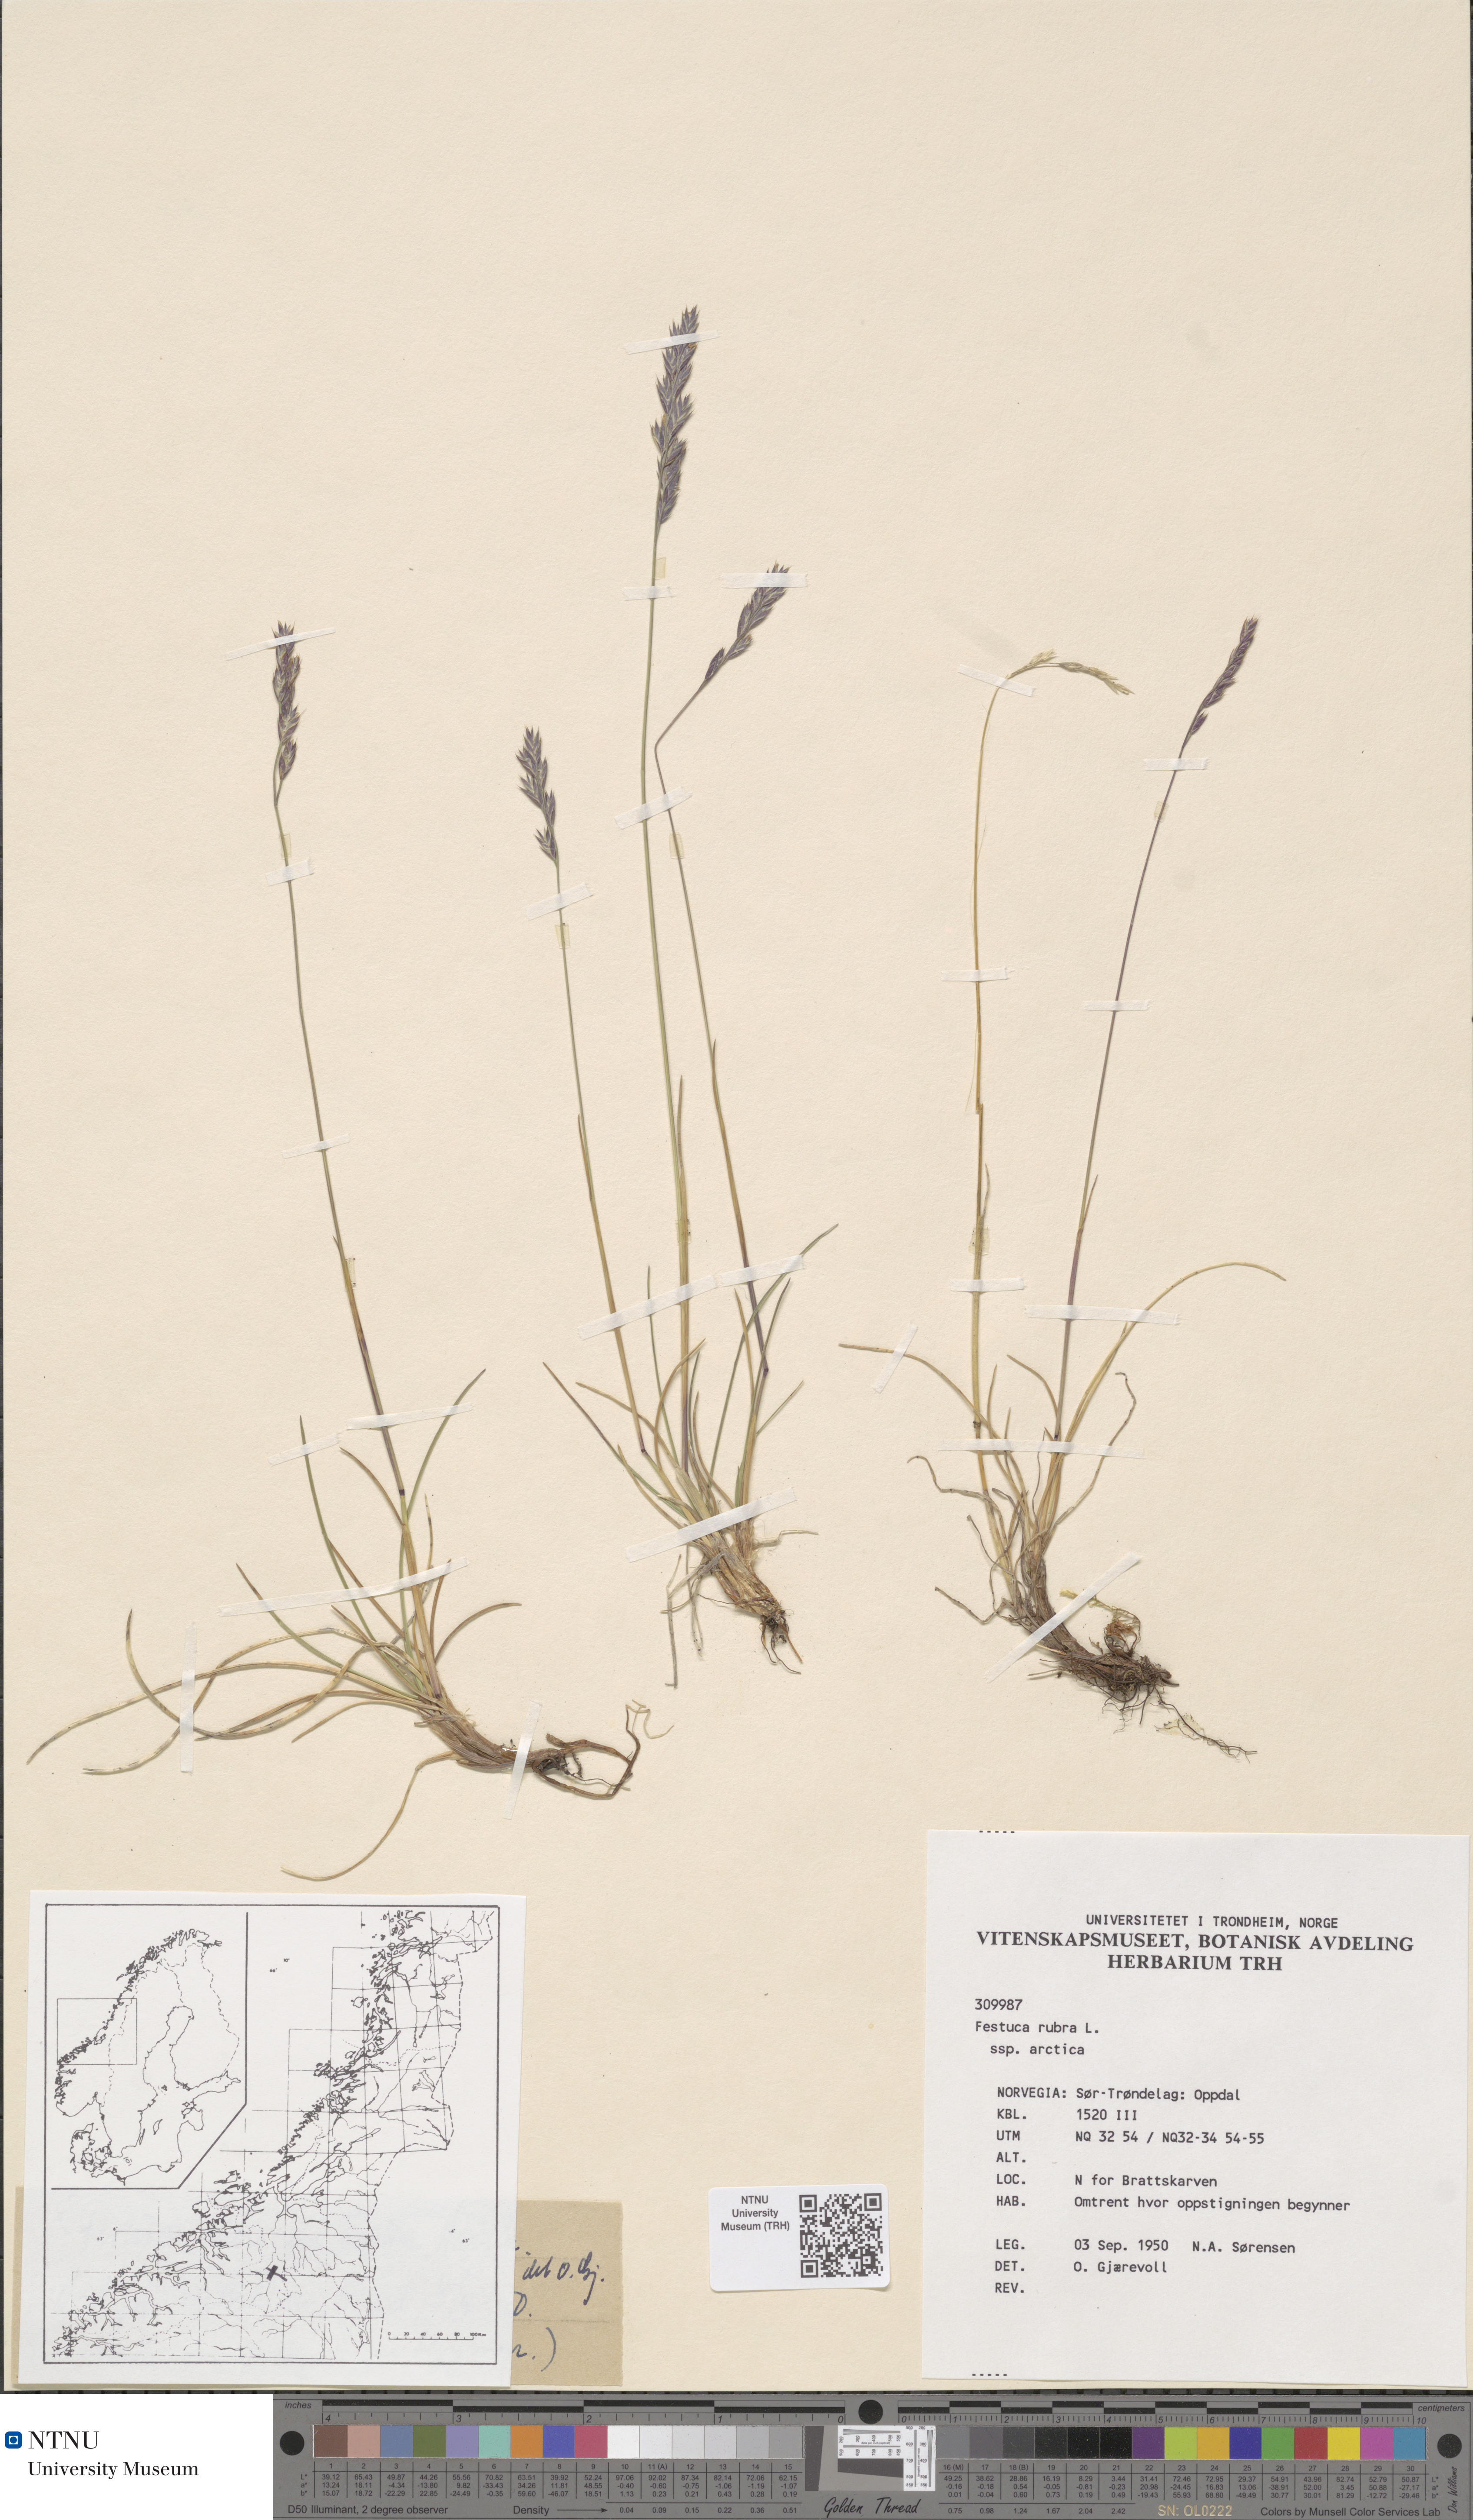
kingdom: Plantae
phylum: Tracheophyta
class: Liliopsida
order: Poales
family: Poaceae
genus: Festuca
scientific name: Festuca richardsonii
